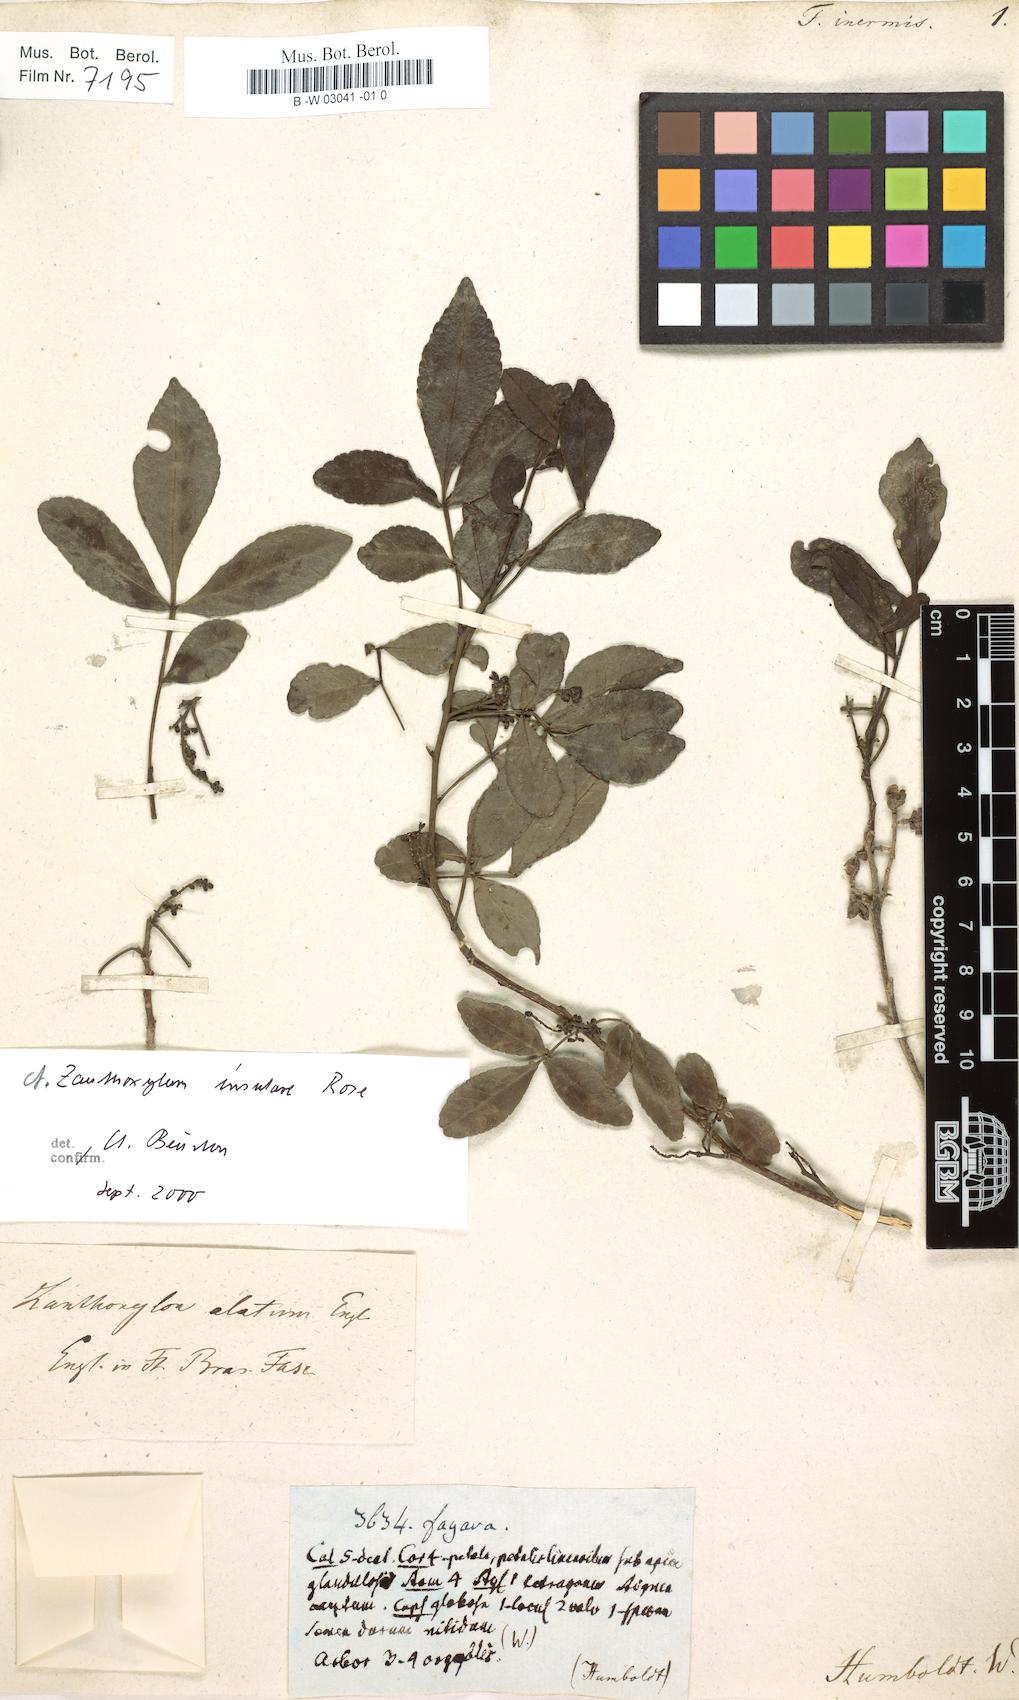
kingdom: Plantae
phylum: Tracheophyta
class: Magnoliopsida
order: Sapindales
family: Rutaceae
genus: Zanthoxylum
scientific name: Zanthoxylum fagara
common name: Lime prickly-ash
